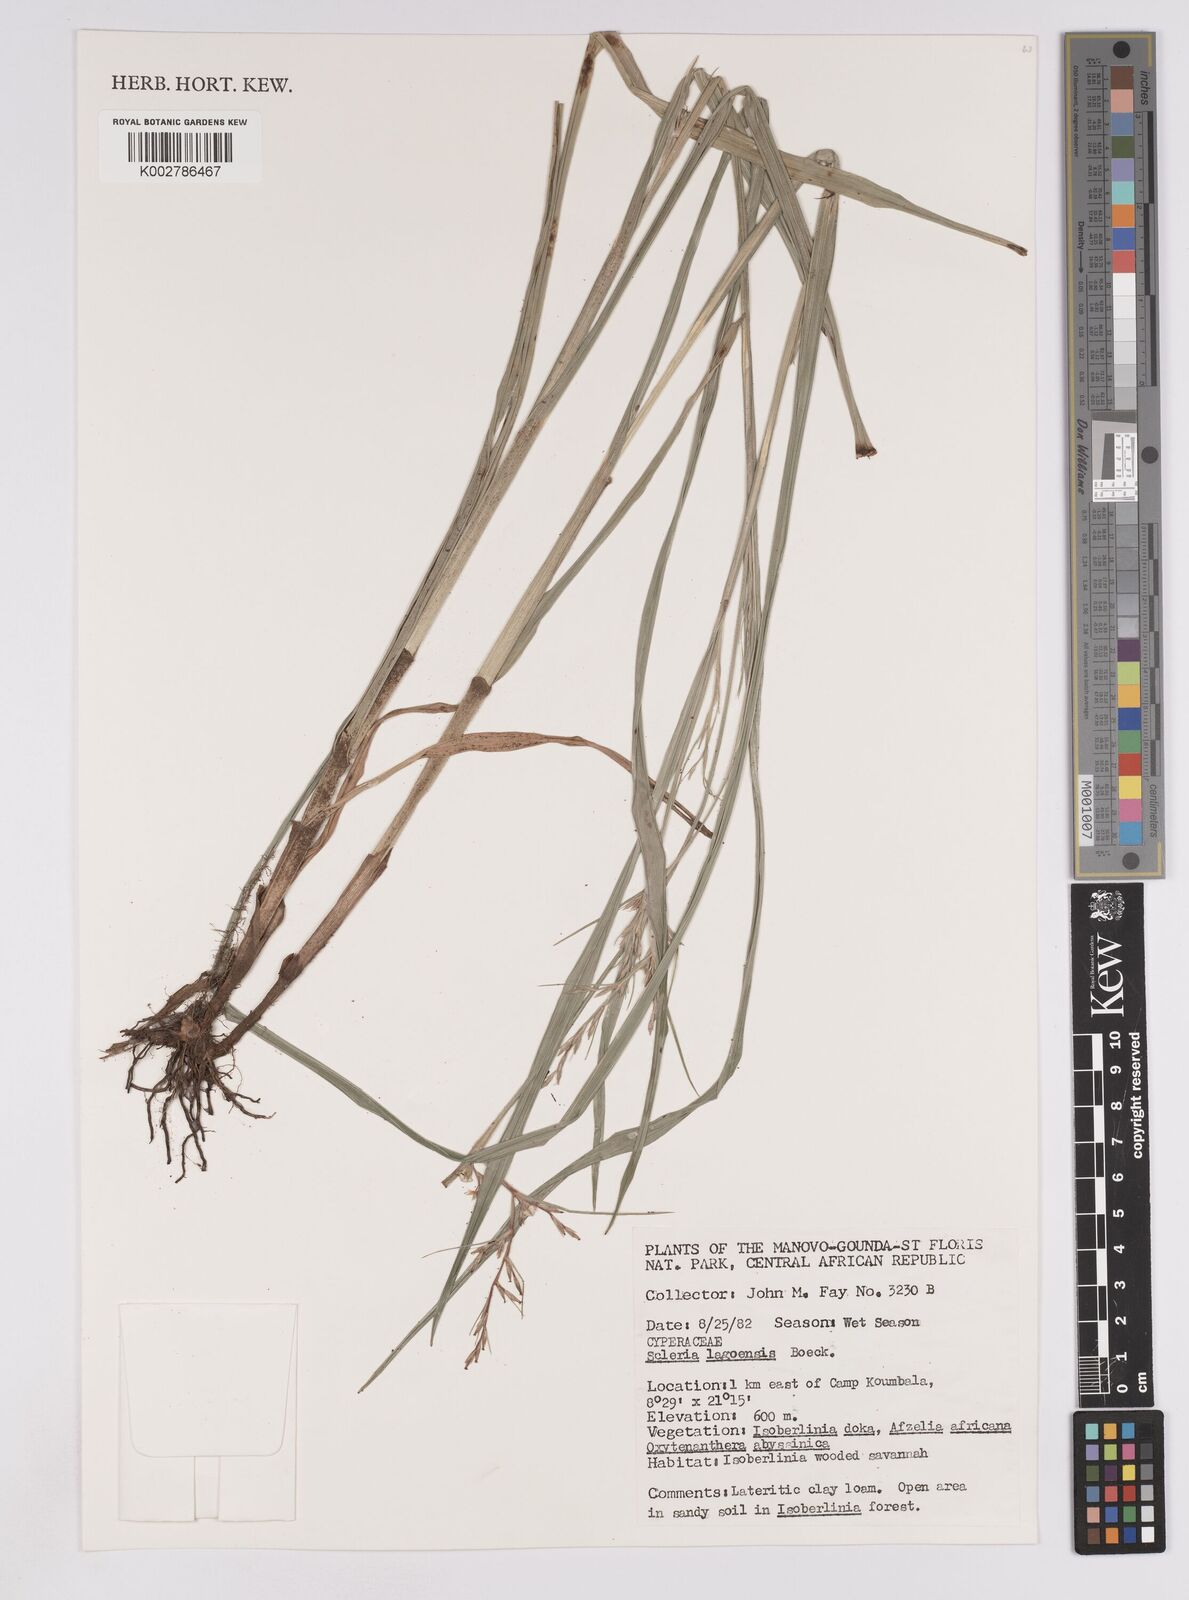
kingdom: Plantae
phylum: Tracheophyta
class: Liliopsida
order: Poales
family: Cyperaceae
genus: Scleria
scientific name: Scleria lagoensis
